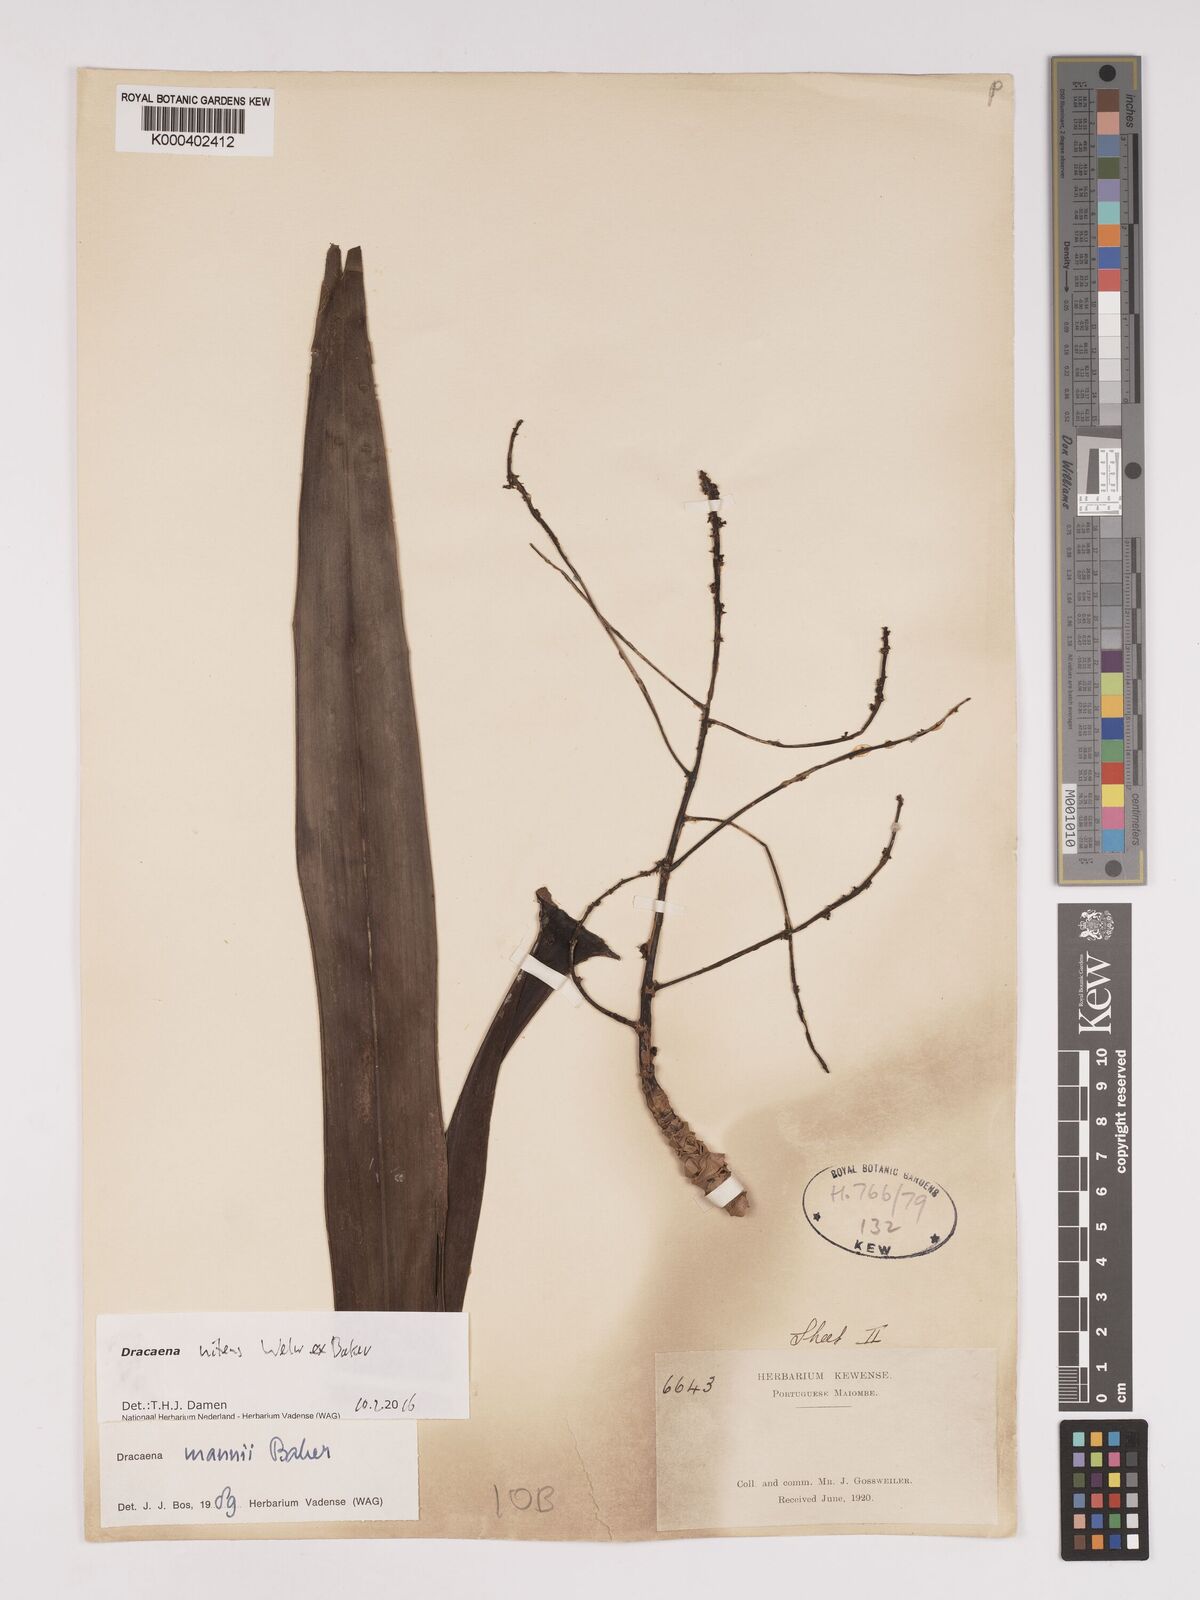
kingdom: Plantae
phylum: Tracheophyta
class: Liliopsida
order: Asparagales
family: Asparagaceae
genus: Dracaena
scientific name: Dracaena nitens
